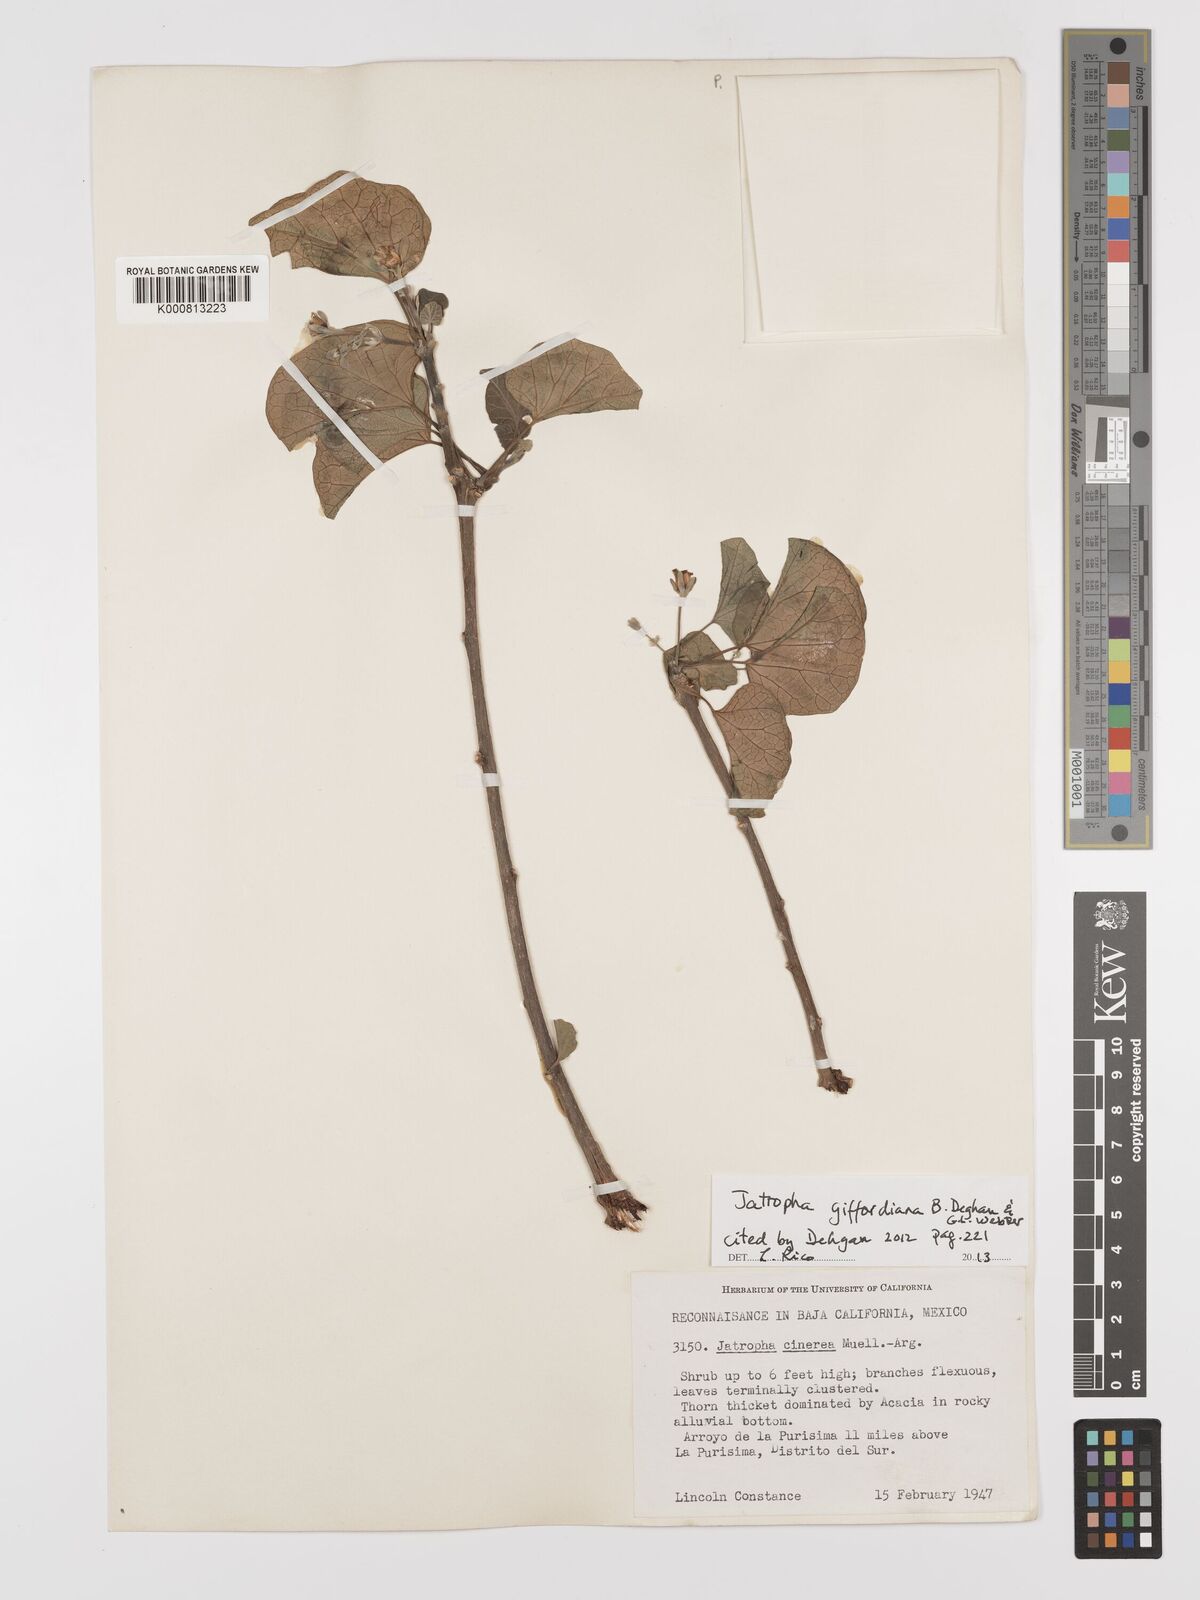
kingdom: Plantae
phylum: Tracheophyta
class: Magnoliopsida
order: Malpighiales
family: Euphorbiaceae
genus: Jatropha
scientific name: Jatropha giffordiana
